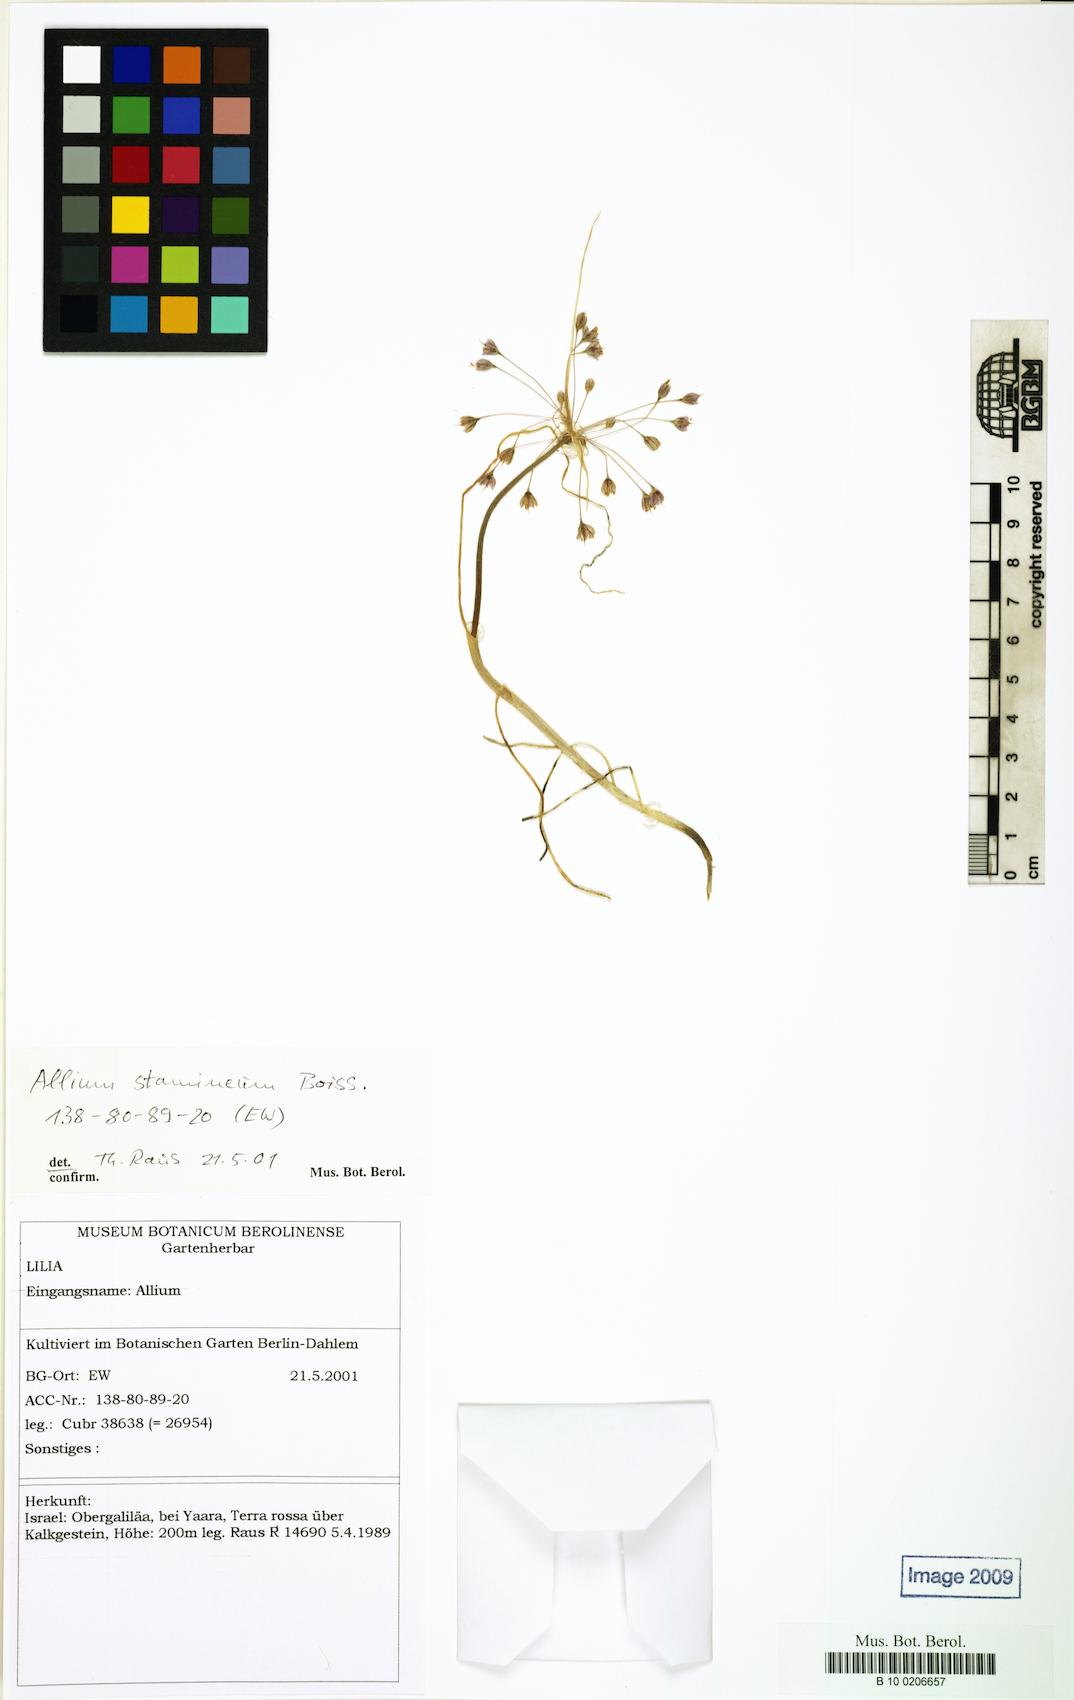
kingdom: Plantae
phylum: Tracheophyta
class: Liliopsida
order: Asparagales
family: Amaryllidaceae
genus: Allium
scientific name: Allium stamineum
